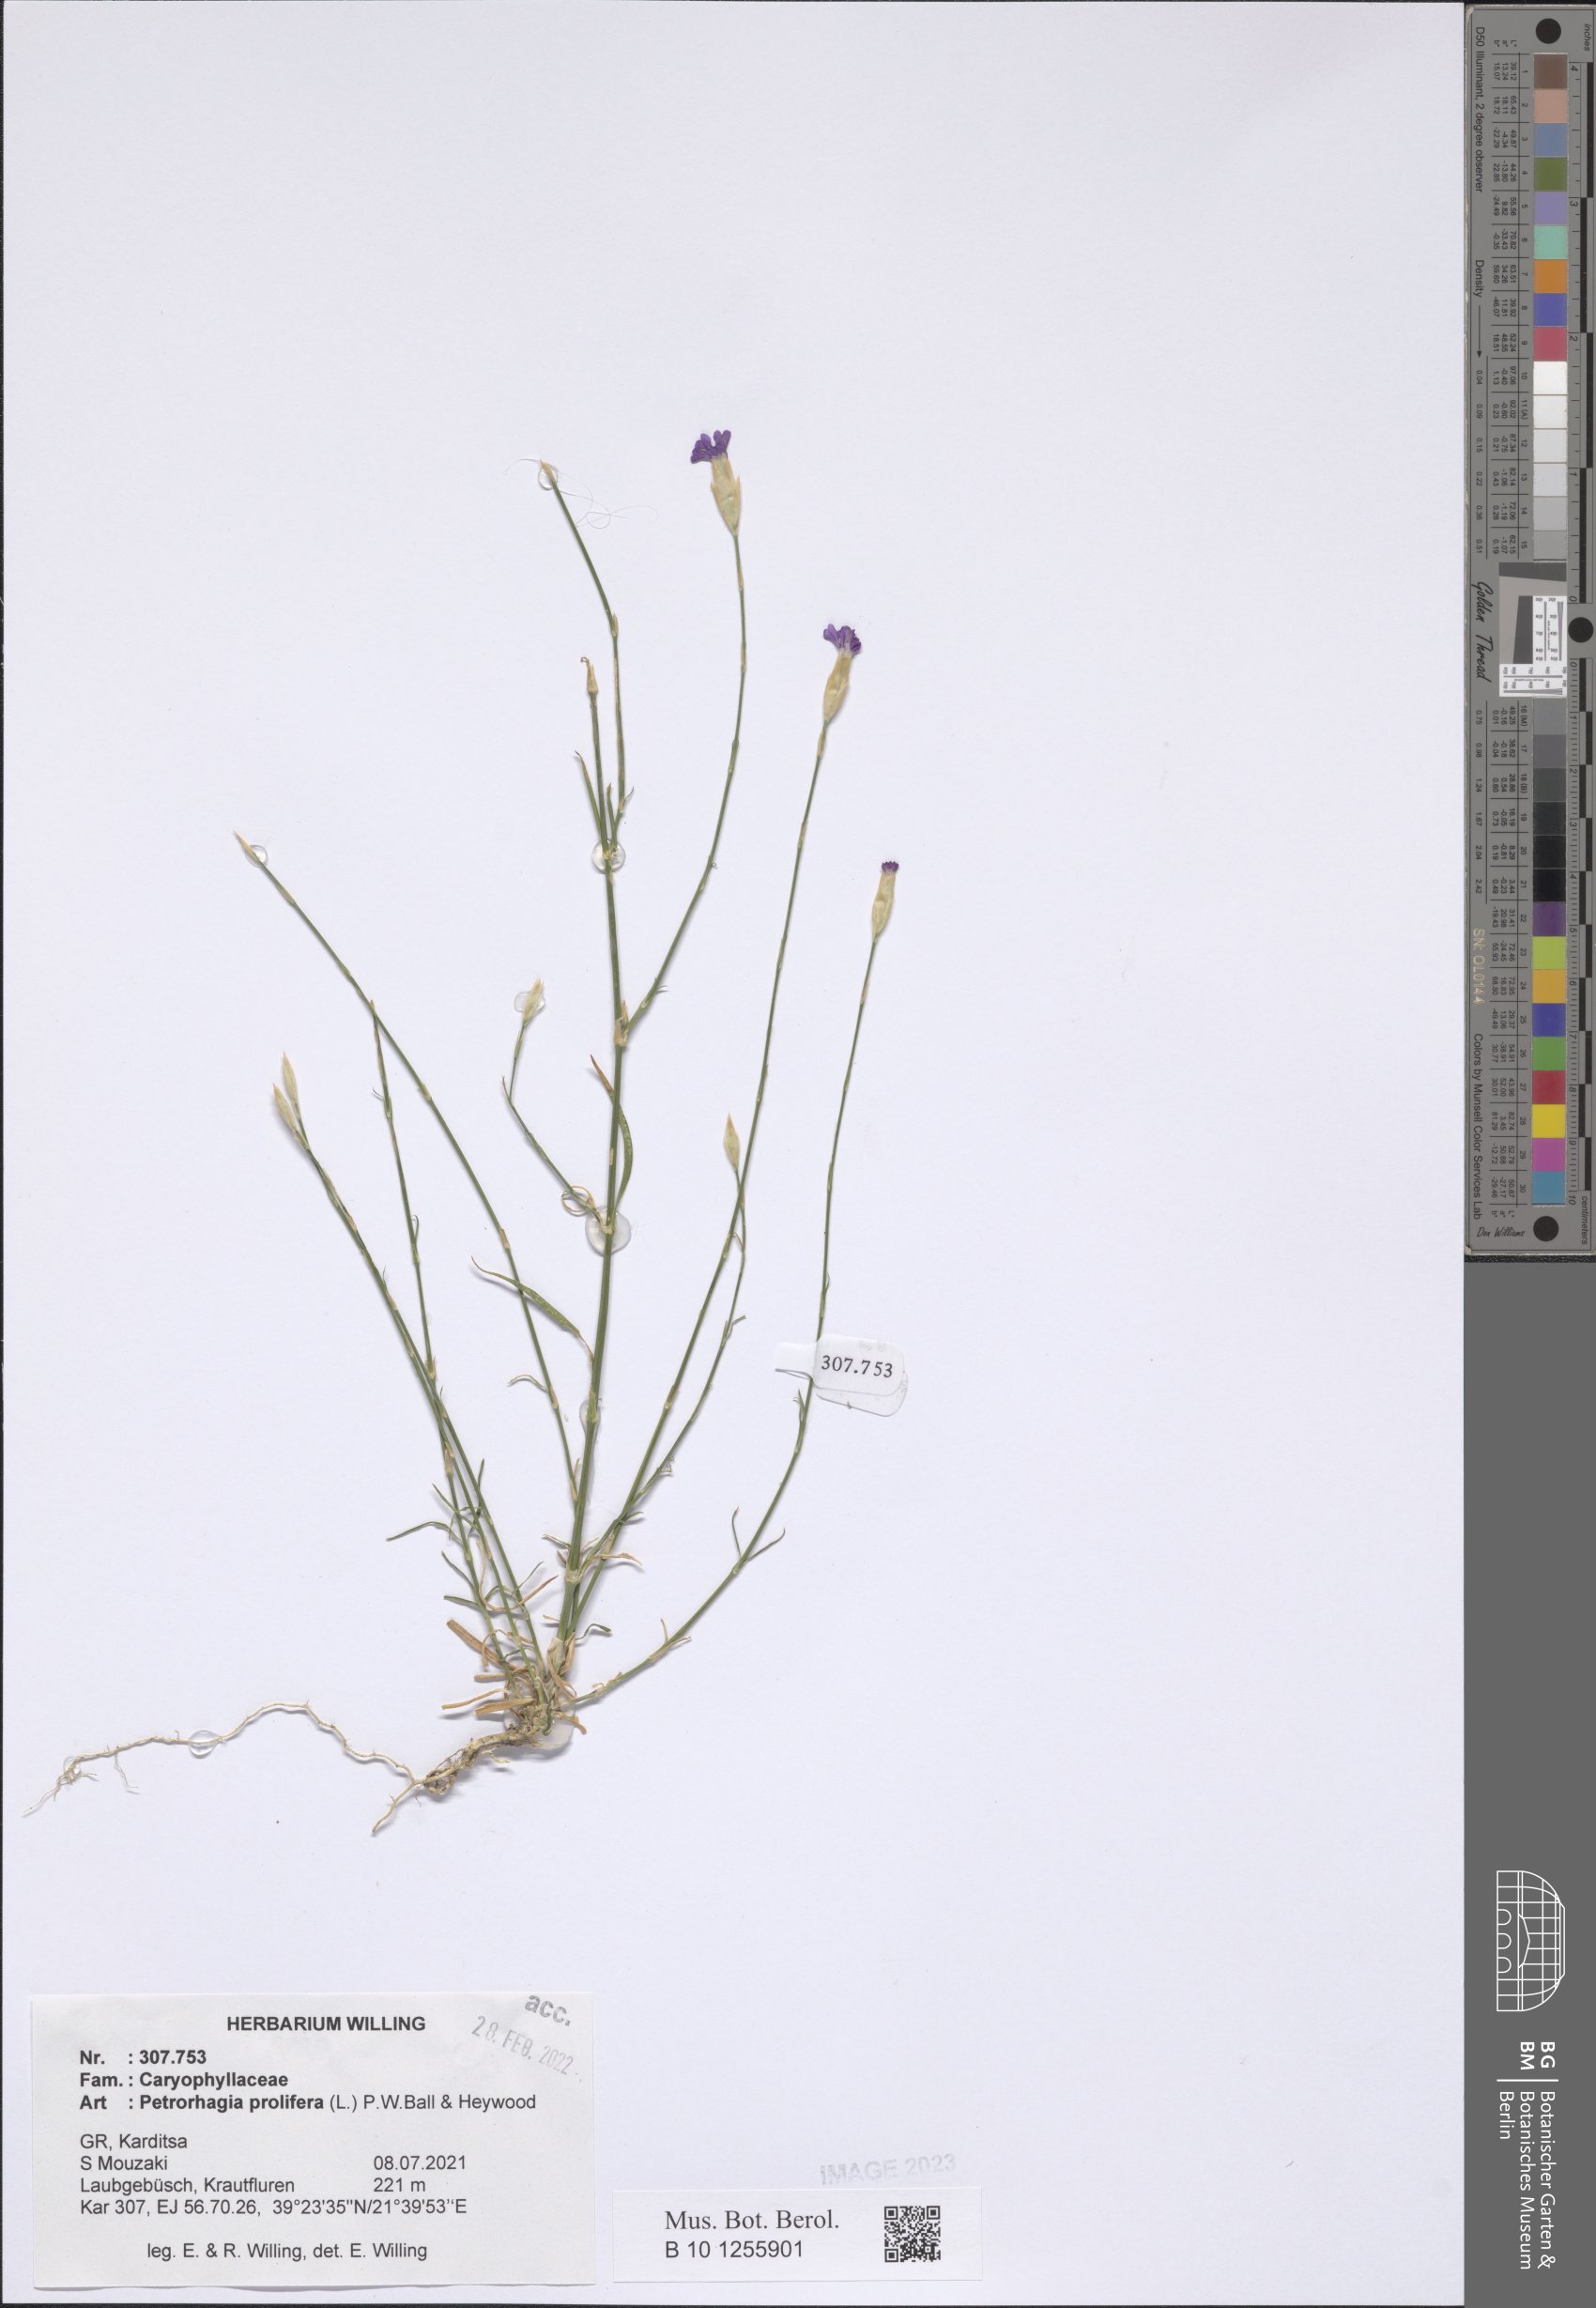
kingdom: Plantae
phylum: Tracheophyta
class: Magnoliopsida
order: Caryophyllales
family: Caryophyllaceae
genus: Petrorhagia
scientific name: Petrorhagia prolifera
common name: Proliferous pink
